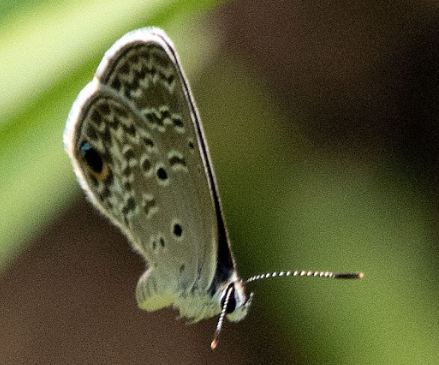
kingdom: Animalia
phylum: Arthropoda
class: Insecta
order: Lepidoptera
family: Lycaenidae
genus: Hemiargus
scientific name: Hemiargus ceraunus
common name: Ceraunus Blue
